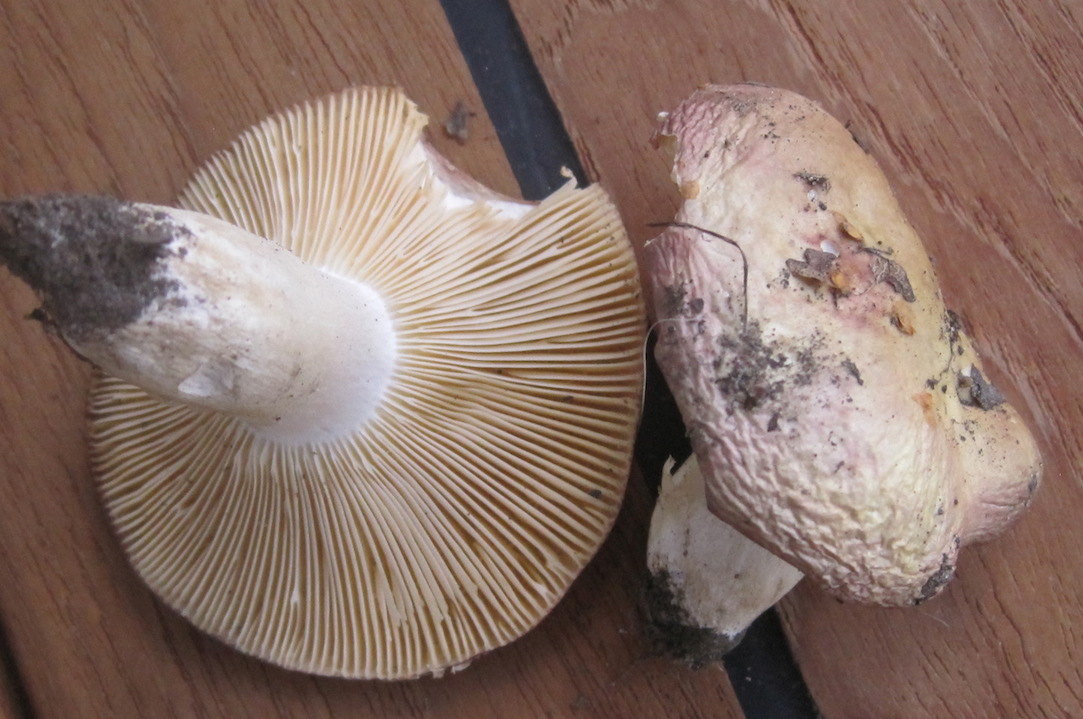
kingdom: Fungi
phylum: Basidiomycota
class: Agaricomycetes
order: Russulales
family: Russulaceae
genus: Russula
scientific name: Russula depallens
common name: falmende skørhat
